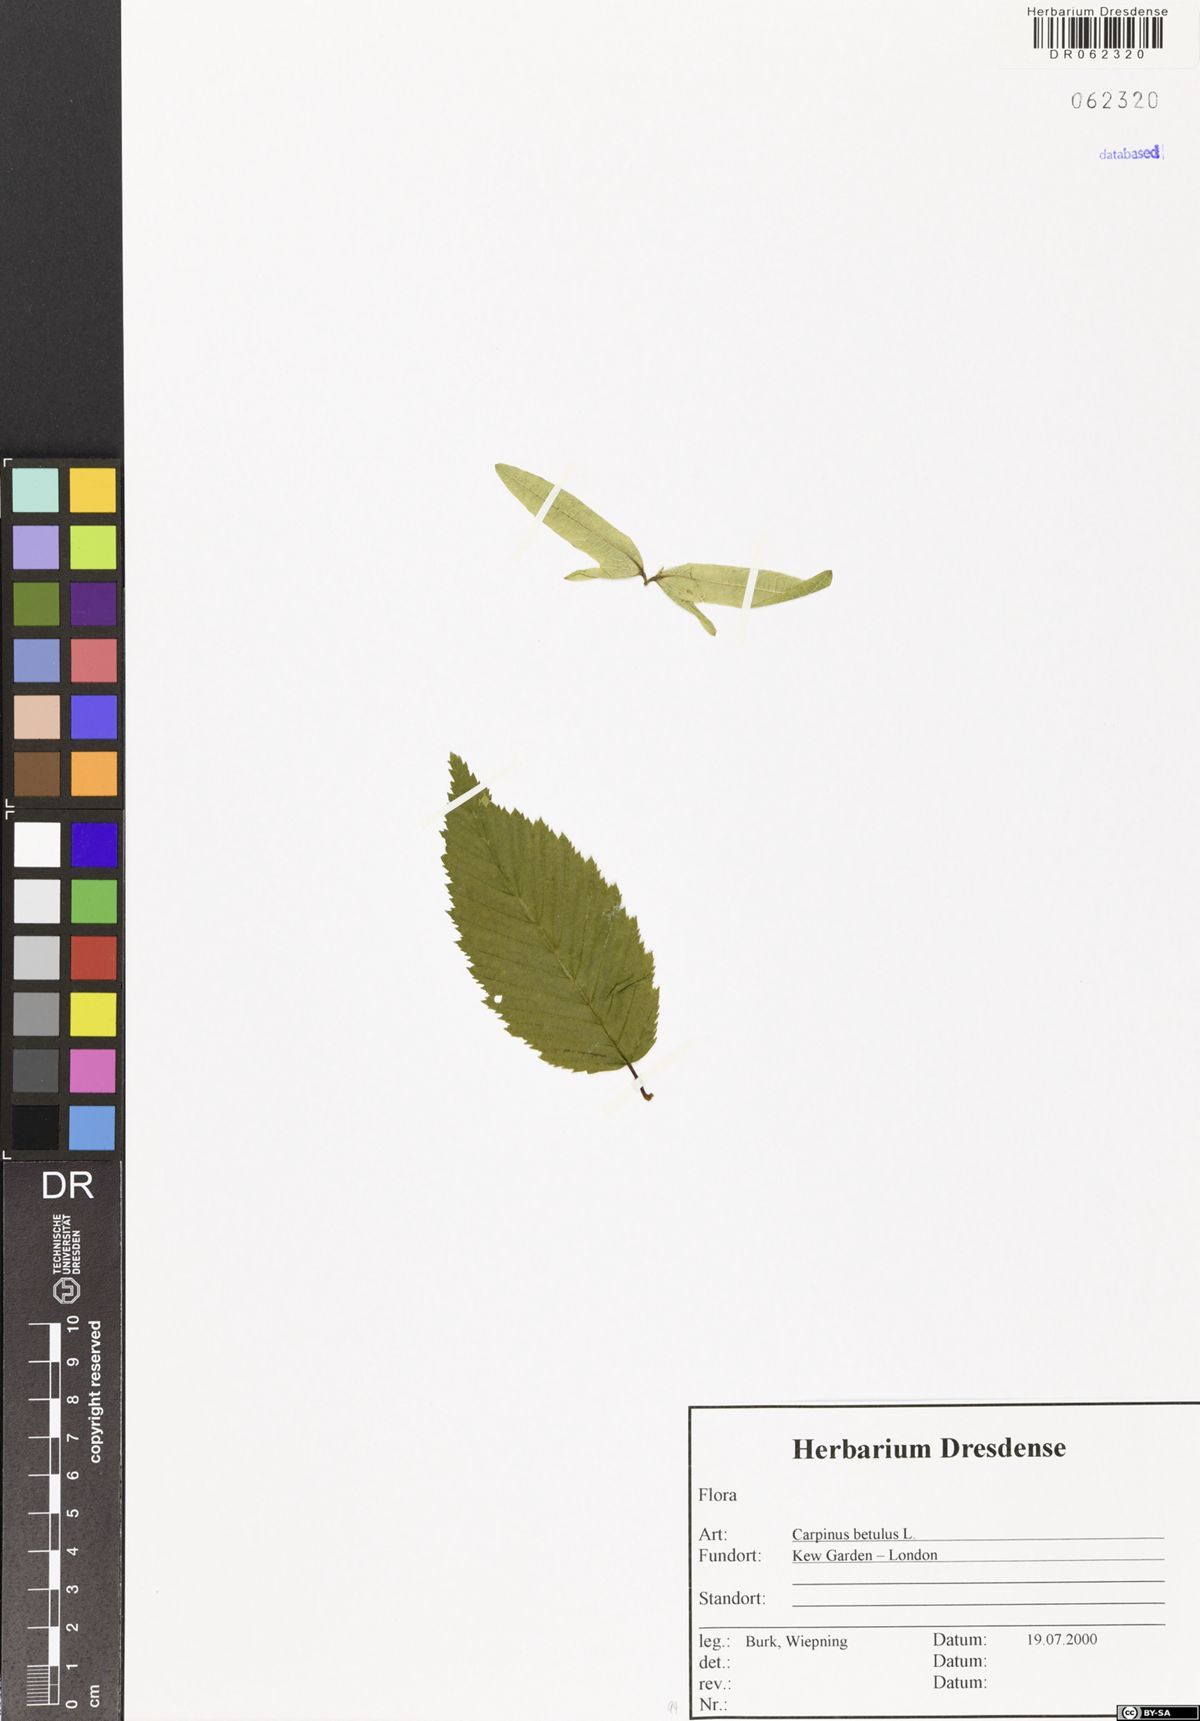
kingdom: Plantae
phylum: Tracheophyta
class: Magnoliopsida
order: Fagales
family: Betulaceae
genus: Carpinus
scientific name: Carpinus betulus
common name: Hornbeam
